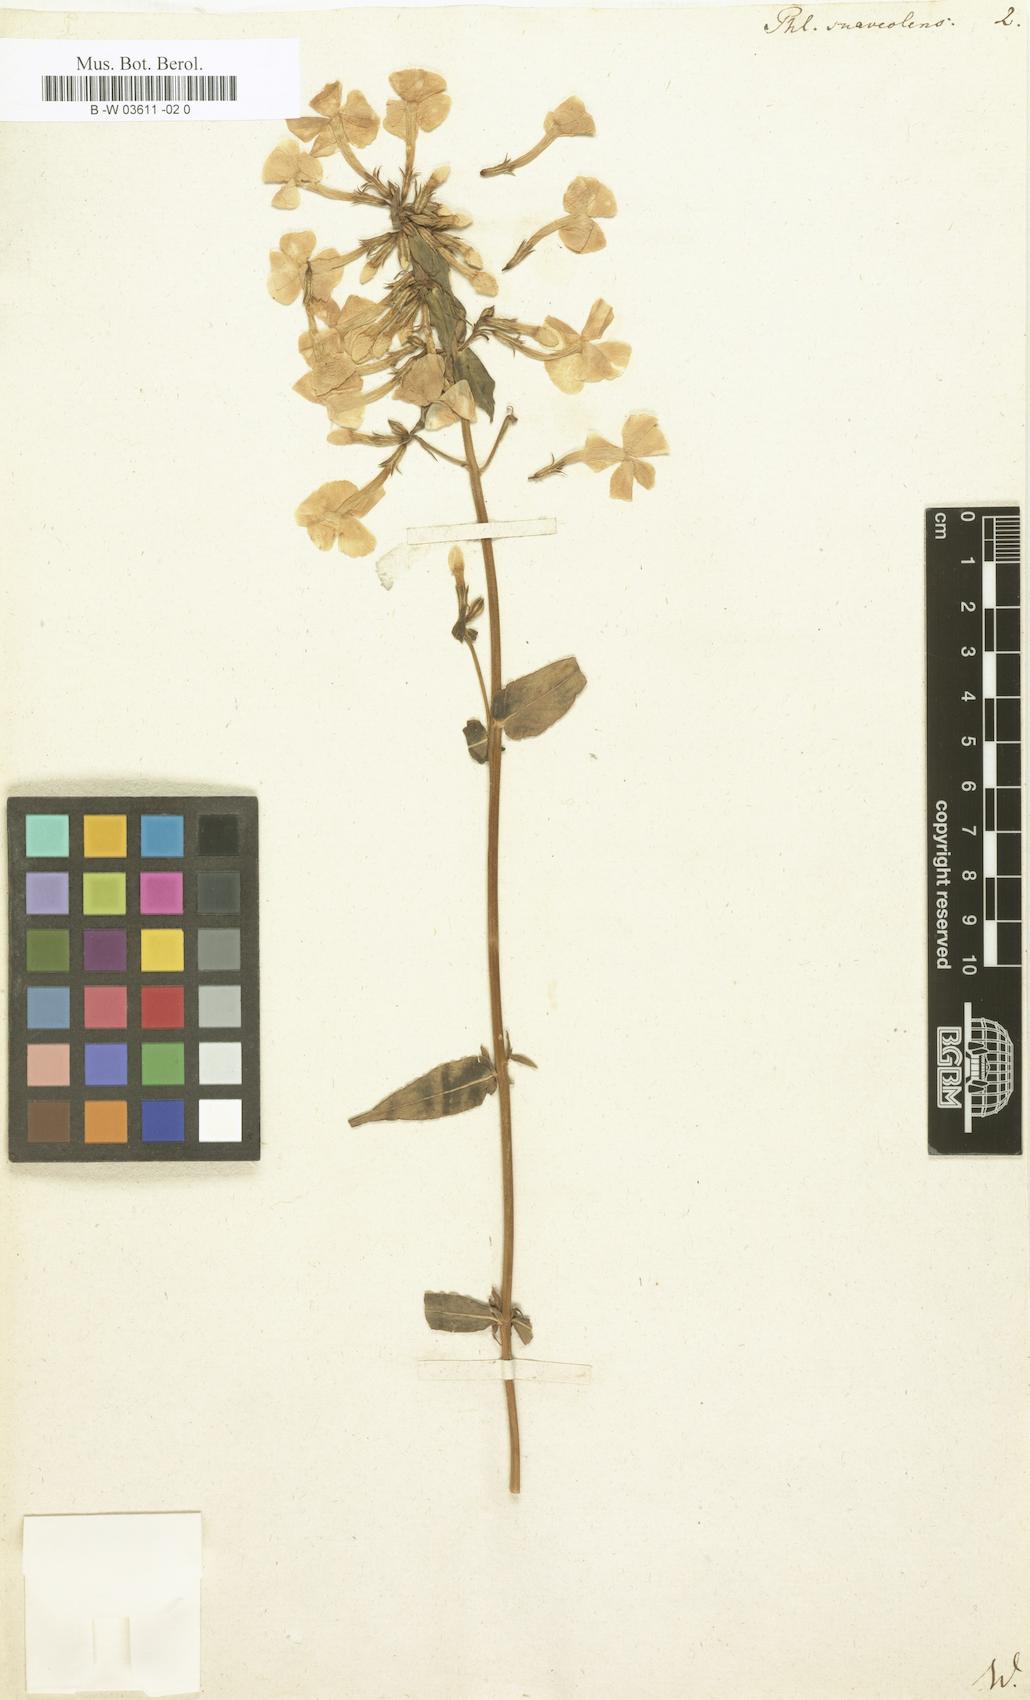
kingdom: Plantae
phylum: Tracheophyta
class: Magnoliopsida
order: Ericales
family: Polemoniaceae
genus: Phlox
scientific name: Phlox maculata
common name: Meadow phlox
